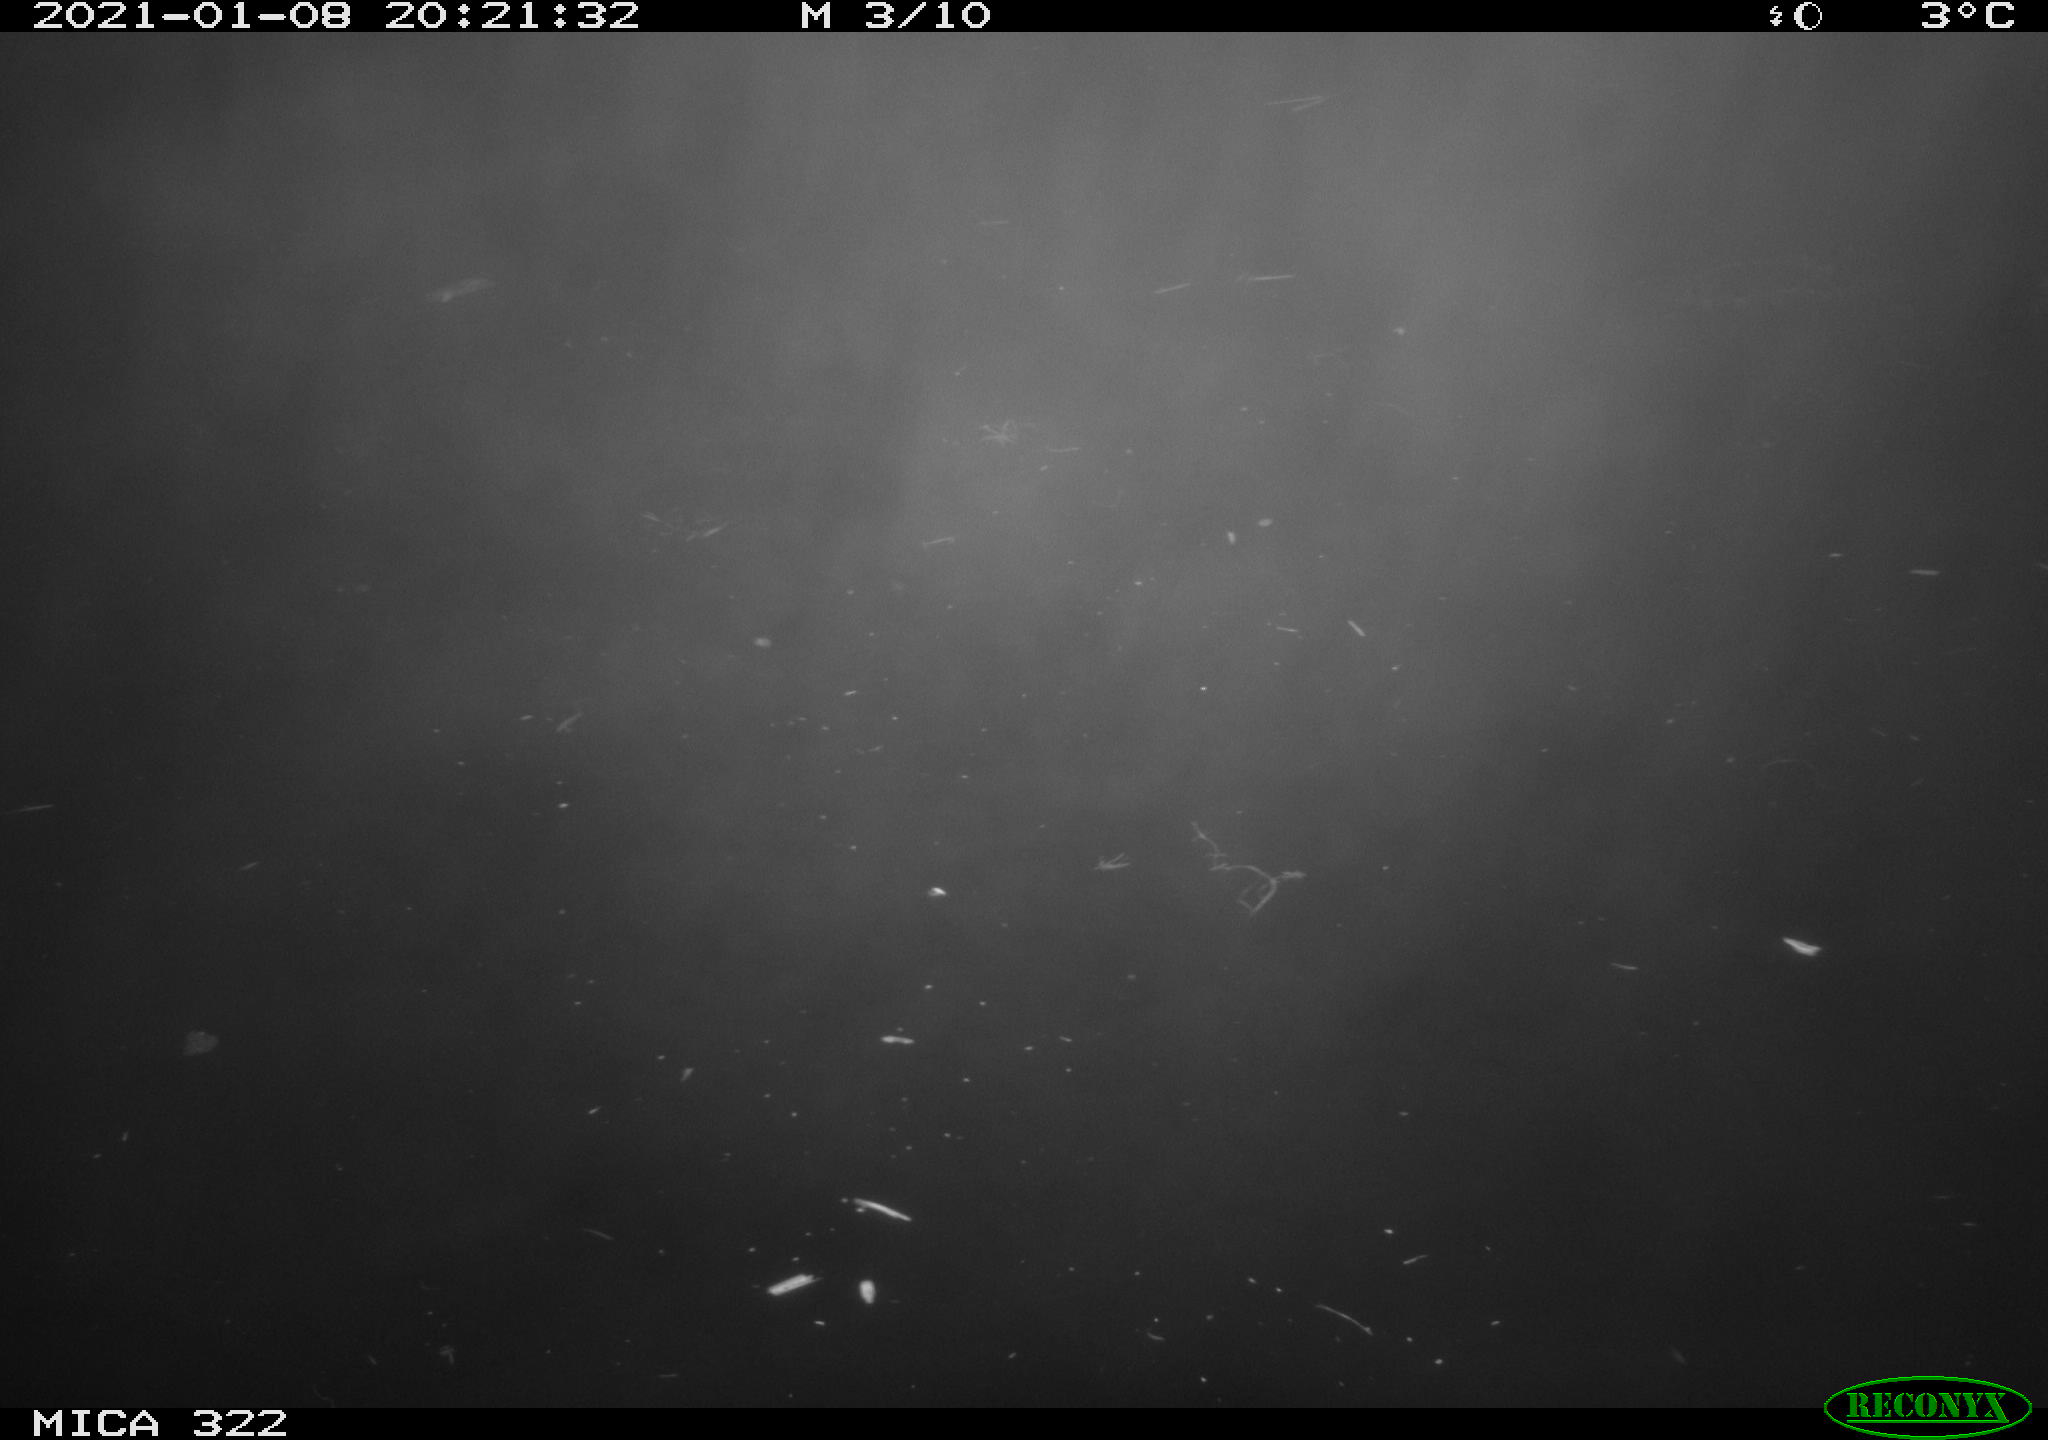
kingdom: Animalia
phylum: Chordata
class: Mammalia
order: Rodentia
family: Muridae
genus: Rattus
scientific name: Rattus norvegicus
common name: Brown rat
